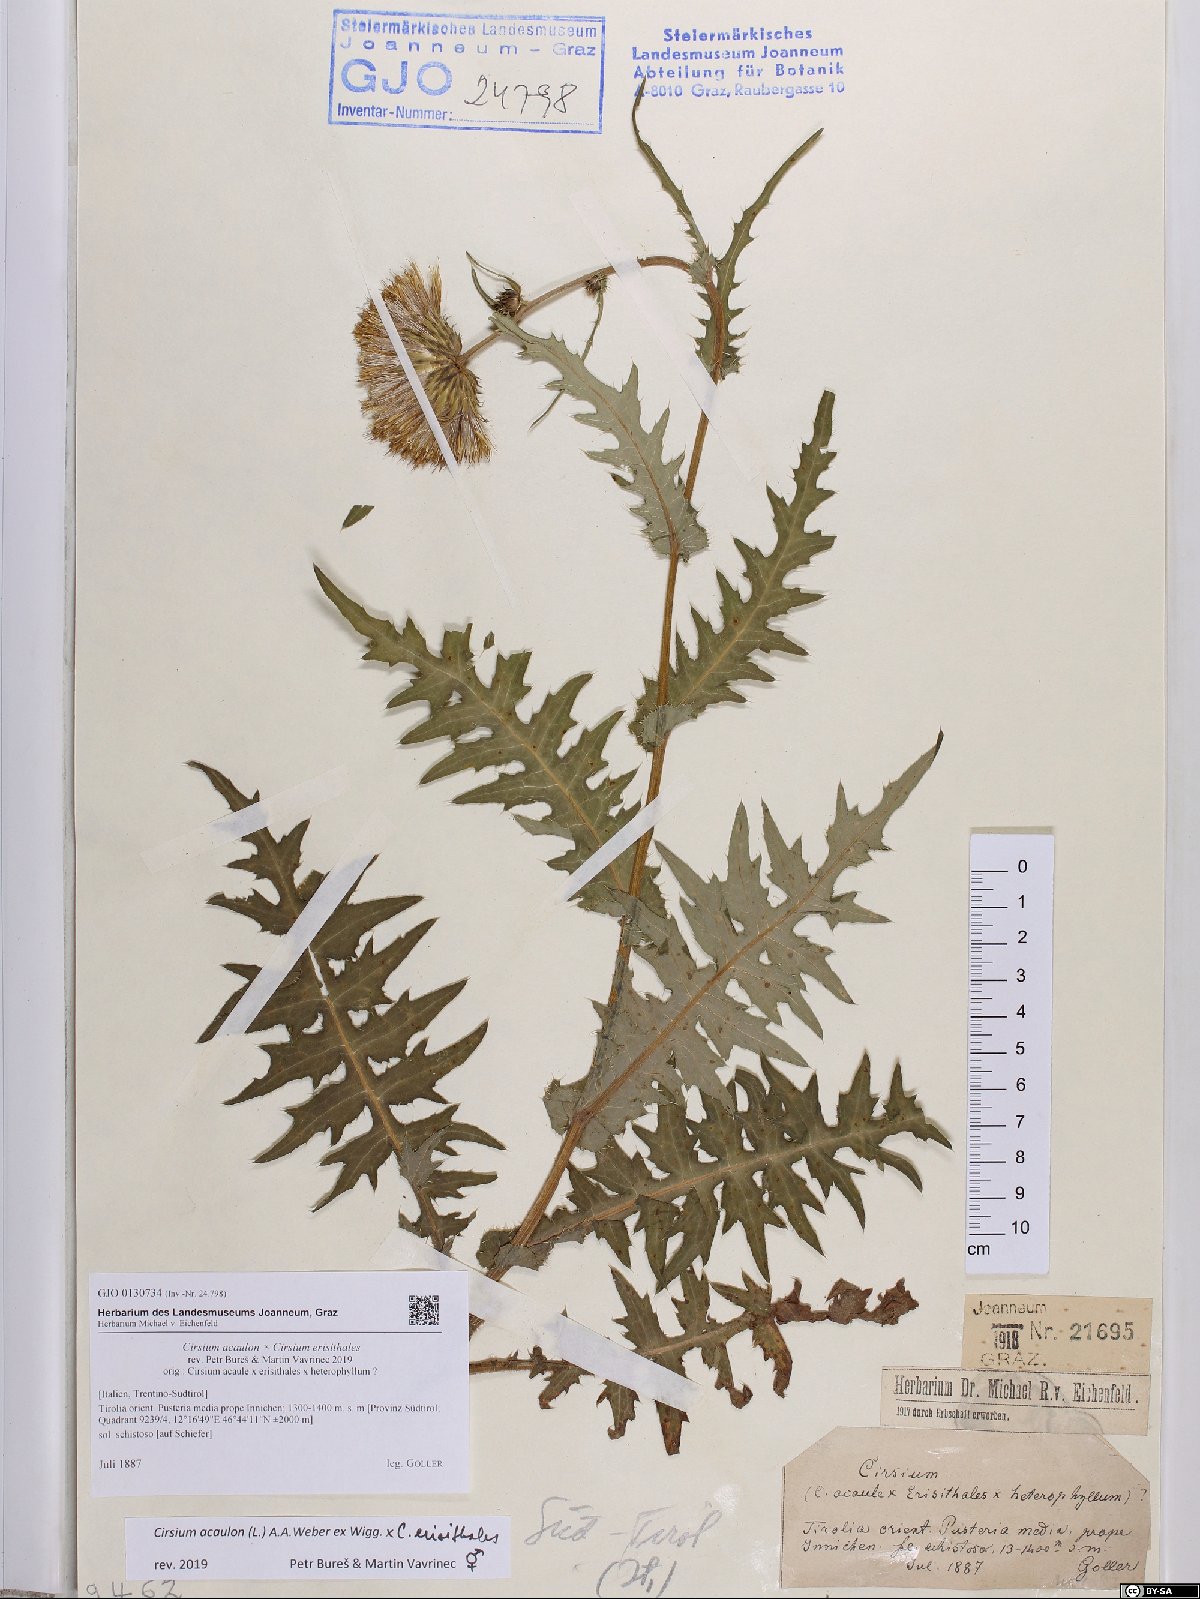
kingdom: Plantae
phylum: Tracheophyta
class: Magnoliopsida
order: Asterales
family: Asteraceae
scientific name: Asteraceae
